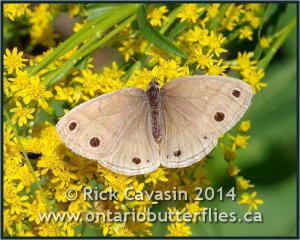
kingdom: Animalia
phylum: Arthropoda
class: Insecta
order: Lepidoptera
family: Nymphalidae
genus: Euptychia
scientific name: Euptychia cymela
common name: Little Wood Satyr
